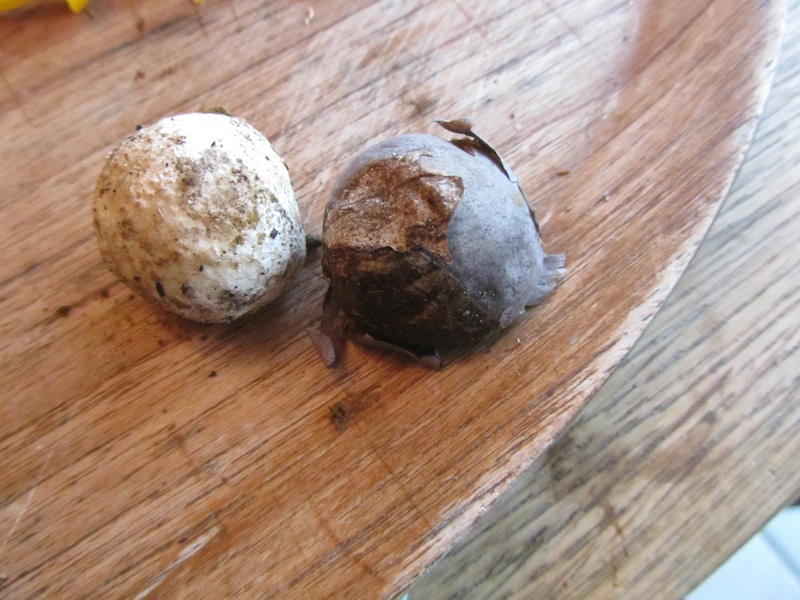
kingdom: Fungi
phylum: Basidiomycota
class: Agaricomycetes
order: Agaricales
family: Lycoperdaceae
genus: Bovista
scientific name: Bovista plumbea
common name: blygrå bovist
